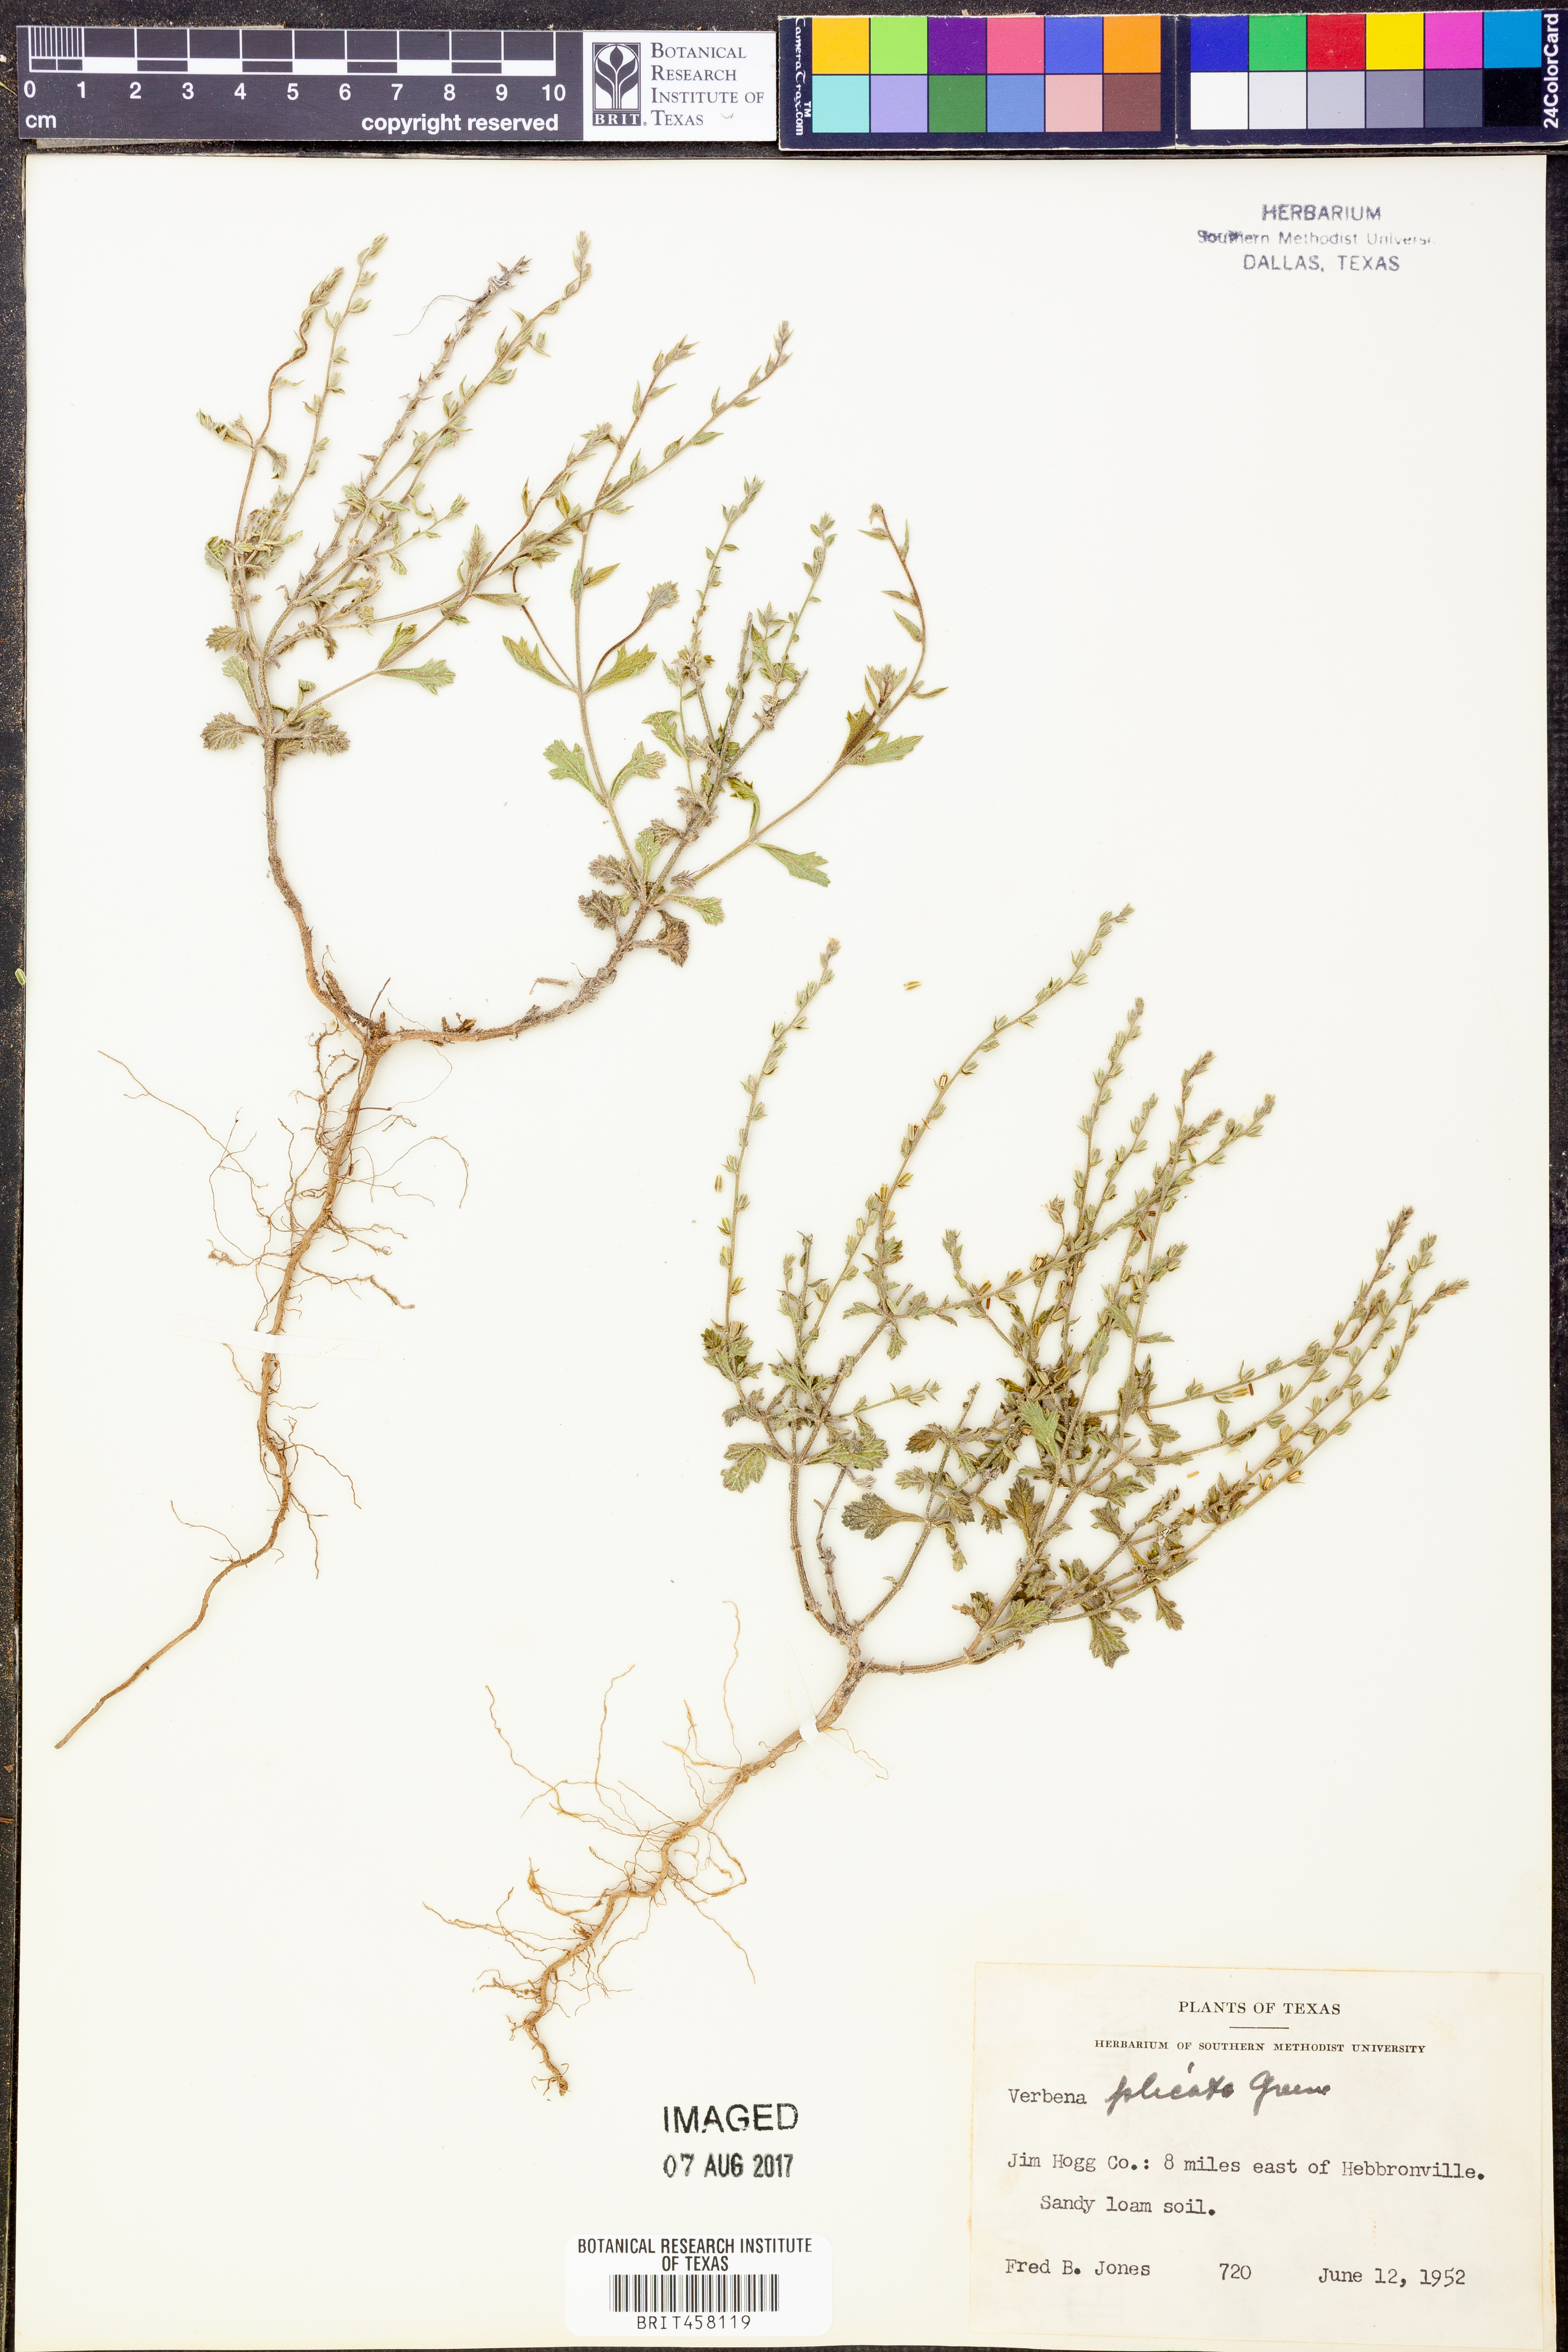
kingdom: Plantae
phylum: Tracheophyta
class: Magnoliopsida
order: Lamiales
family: Verbenaceae
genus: Verbena
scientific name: Verbena plicata
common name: Fan-leaf vervain
